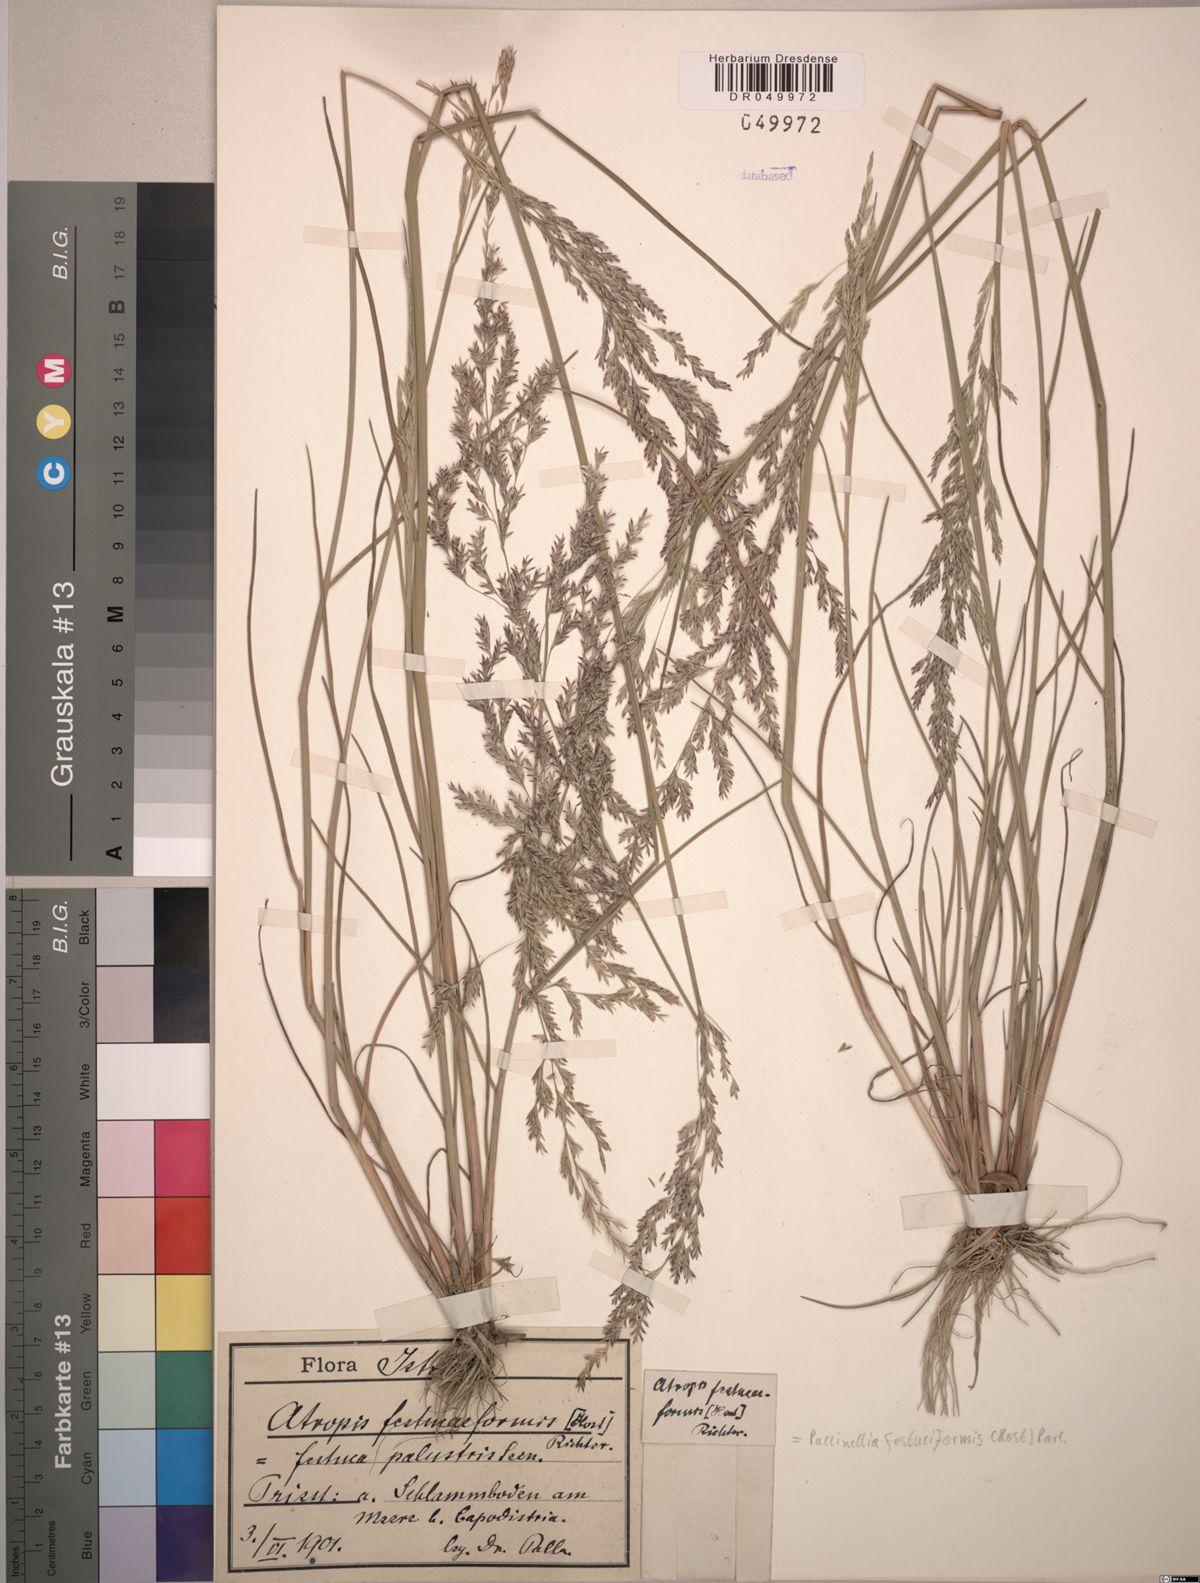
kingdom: Plantae
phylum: Tracheophyta
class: Liliopsida
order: Poales
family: Poaceae
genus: Puccinellia
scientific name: Puccinellia festuciformis
